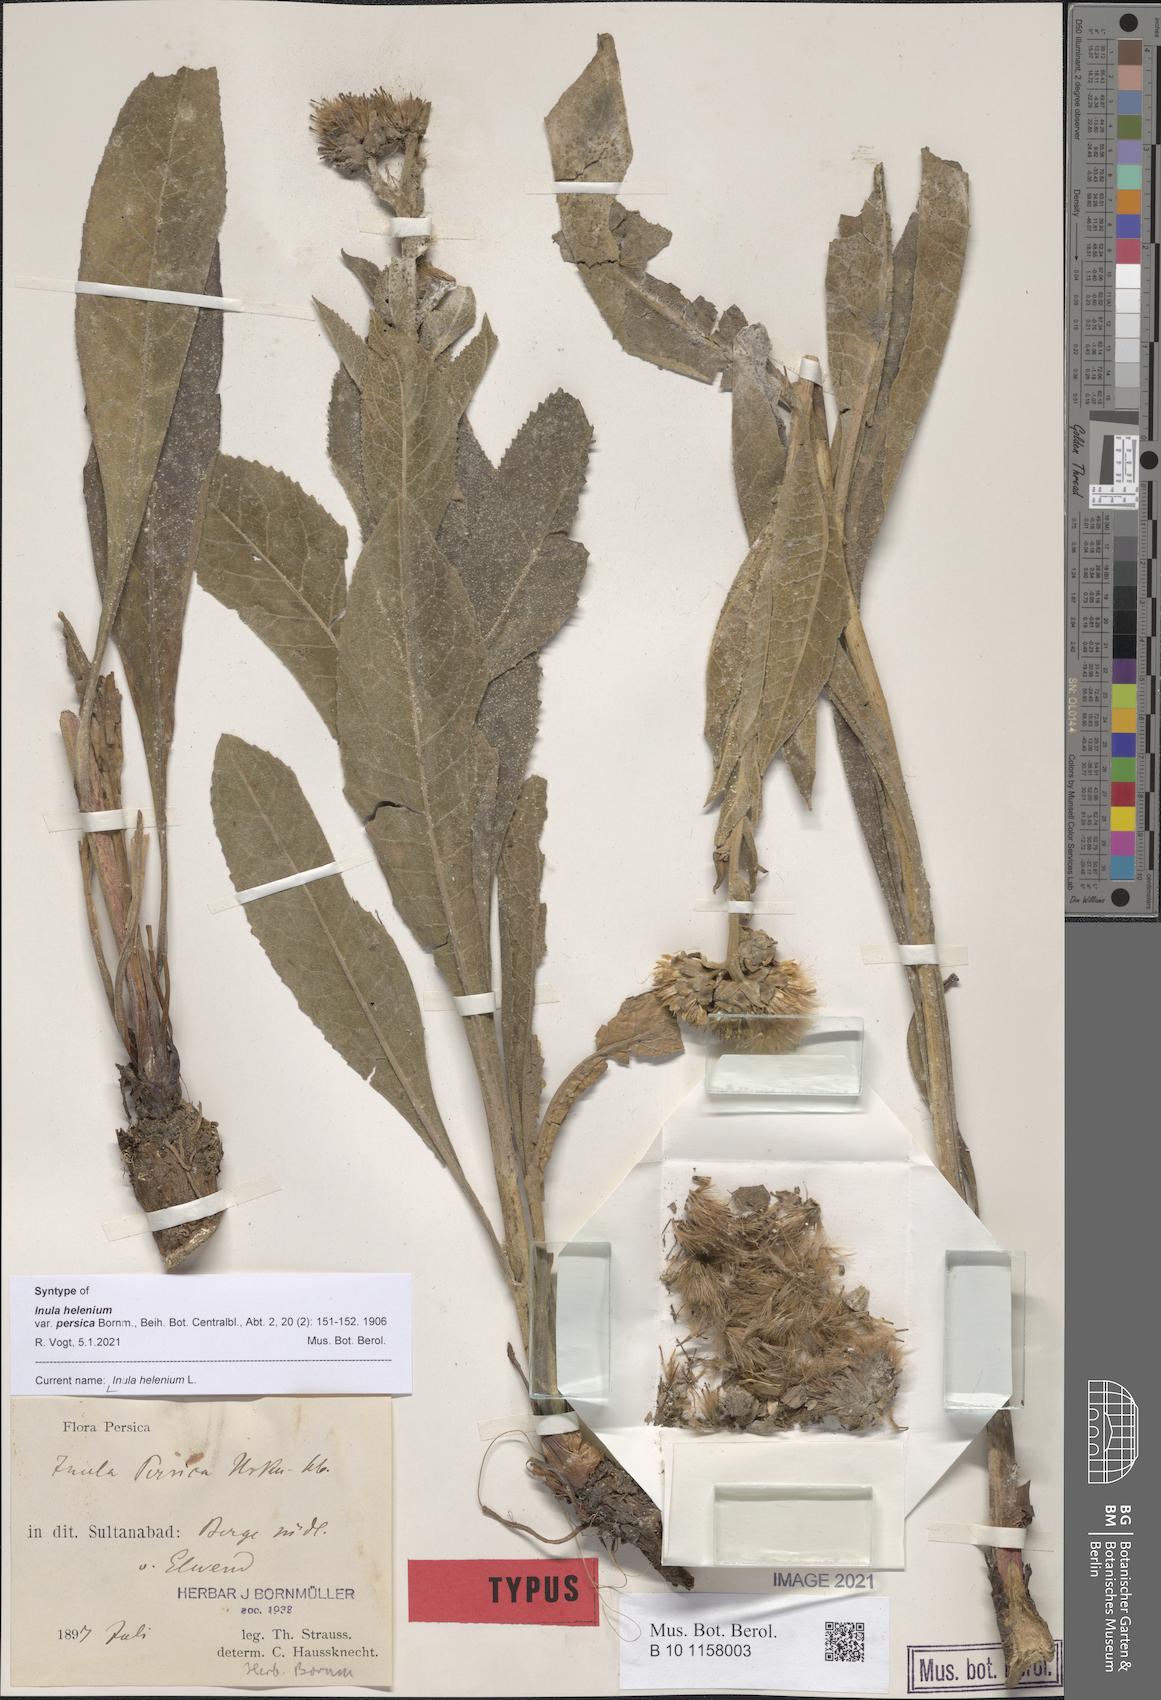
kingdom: Plantae
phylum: Tracheophyta
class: Magnoliopsida
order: Asterales
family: Asteraceae
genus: Inula
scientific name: Inula helenium
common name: Elecampane
